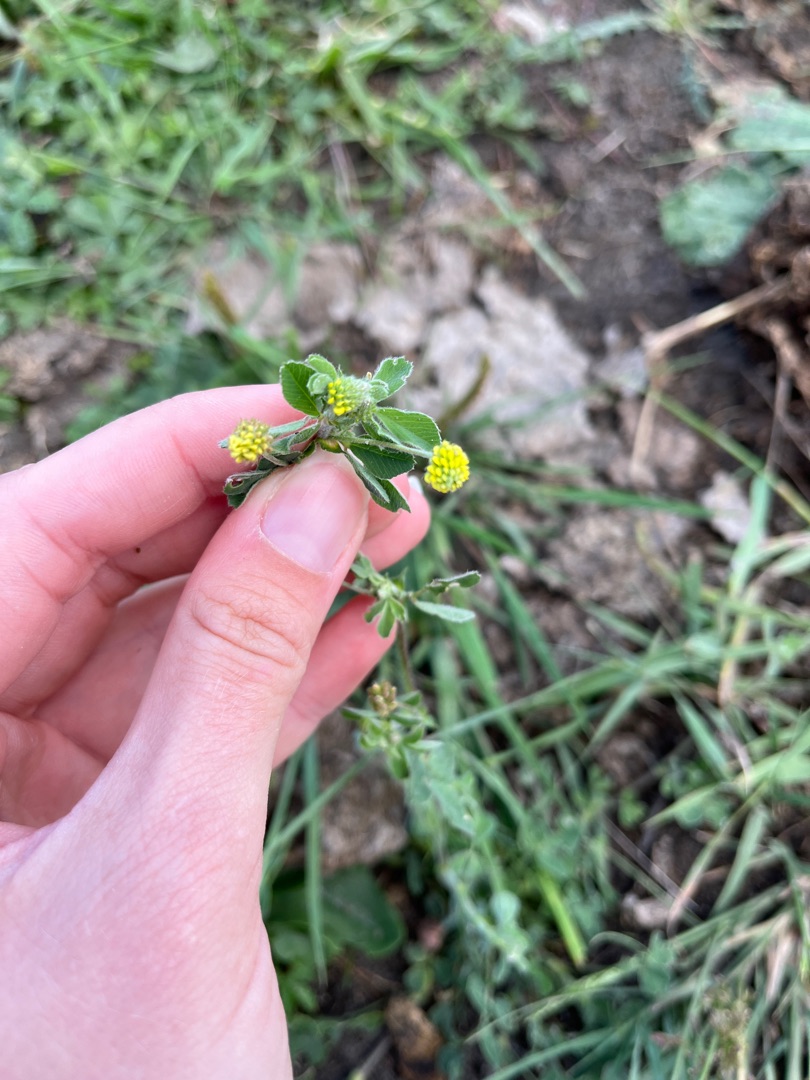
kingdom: Plantae
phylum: Tracheophyta
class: Magnoliopsida
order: Fabales
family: Fabaceae
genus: Medicago
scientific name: Medicago lupulina
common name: Humle-sneglebælg
